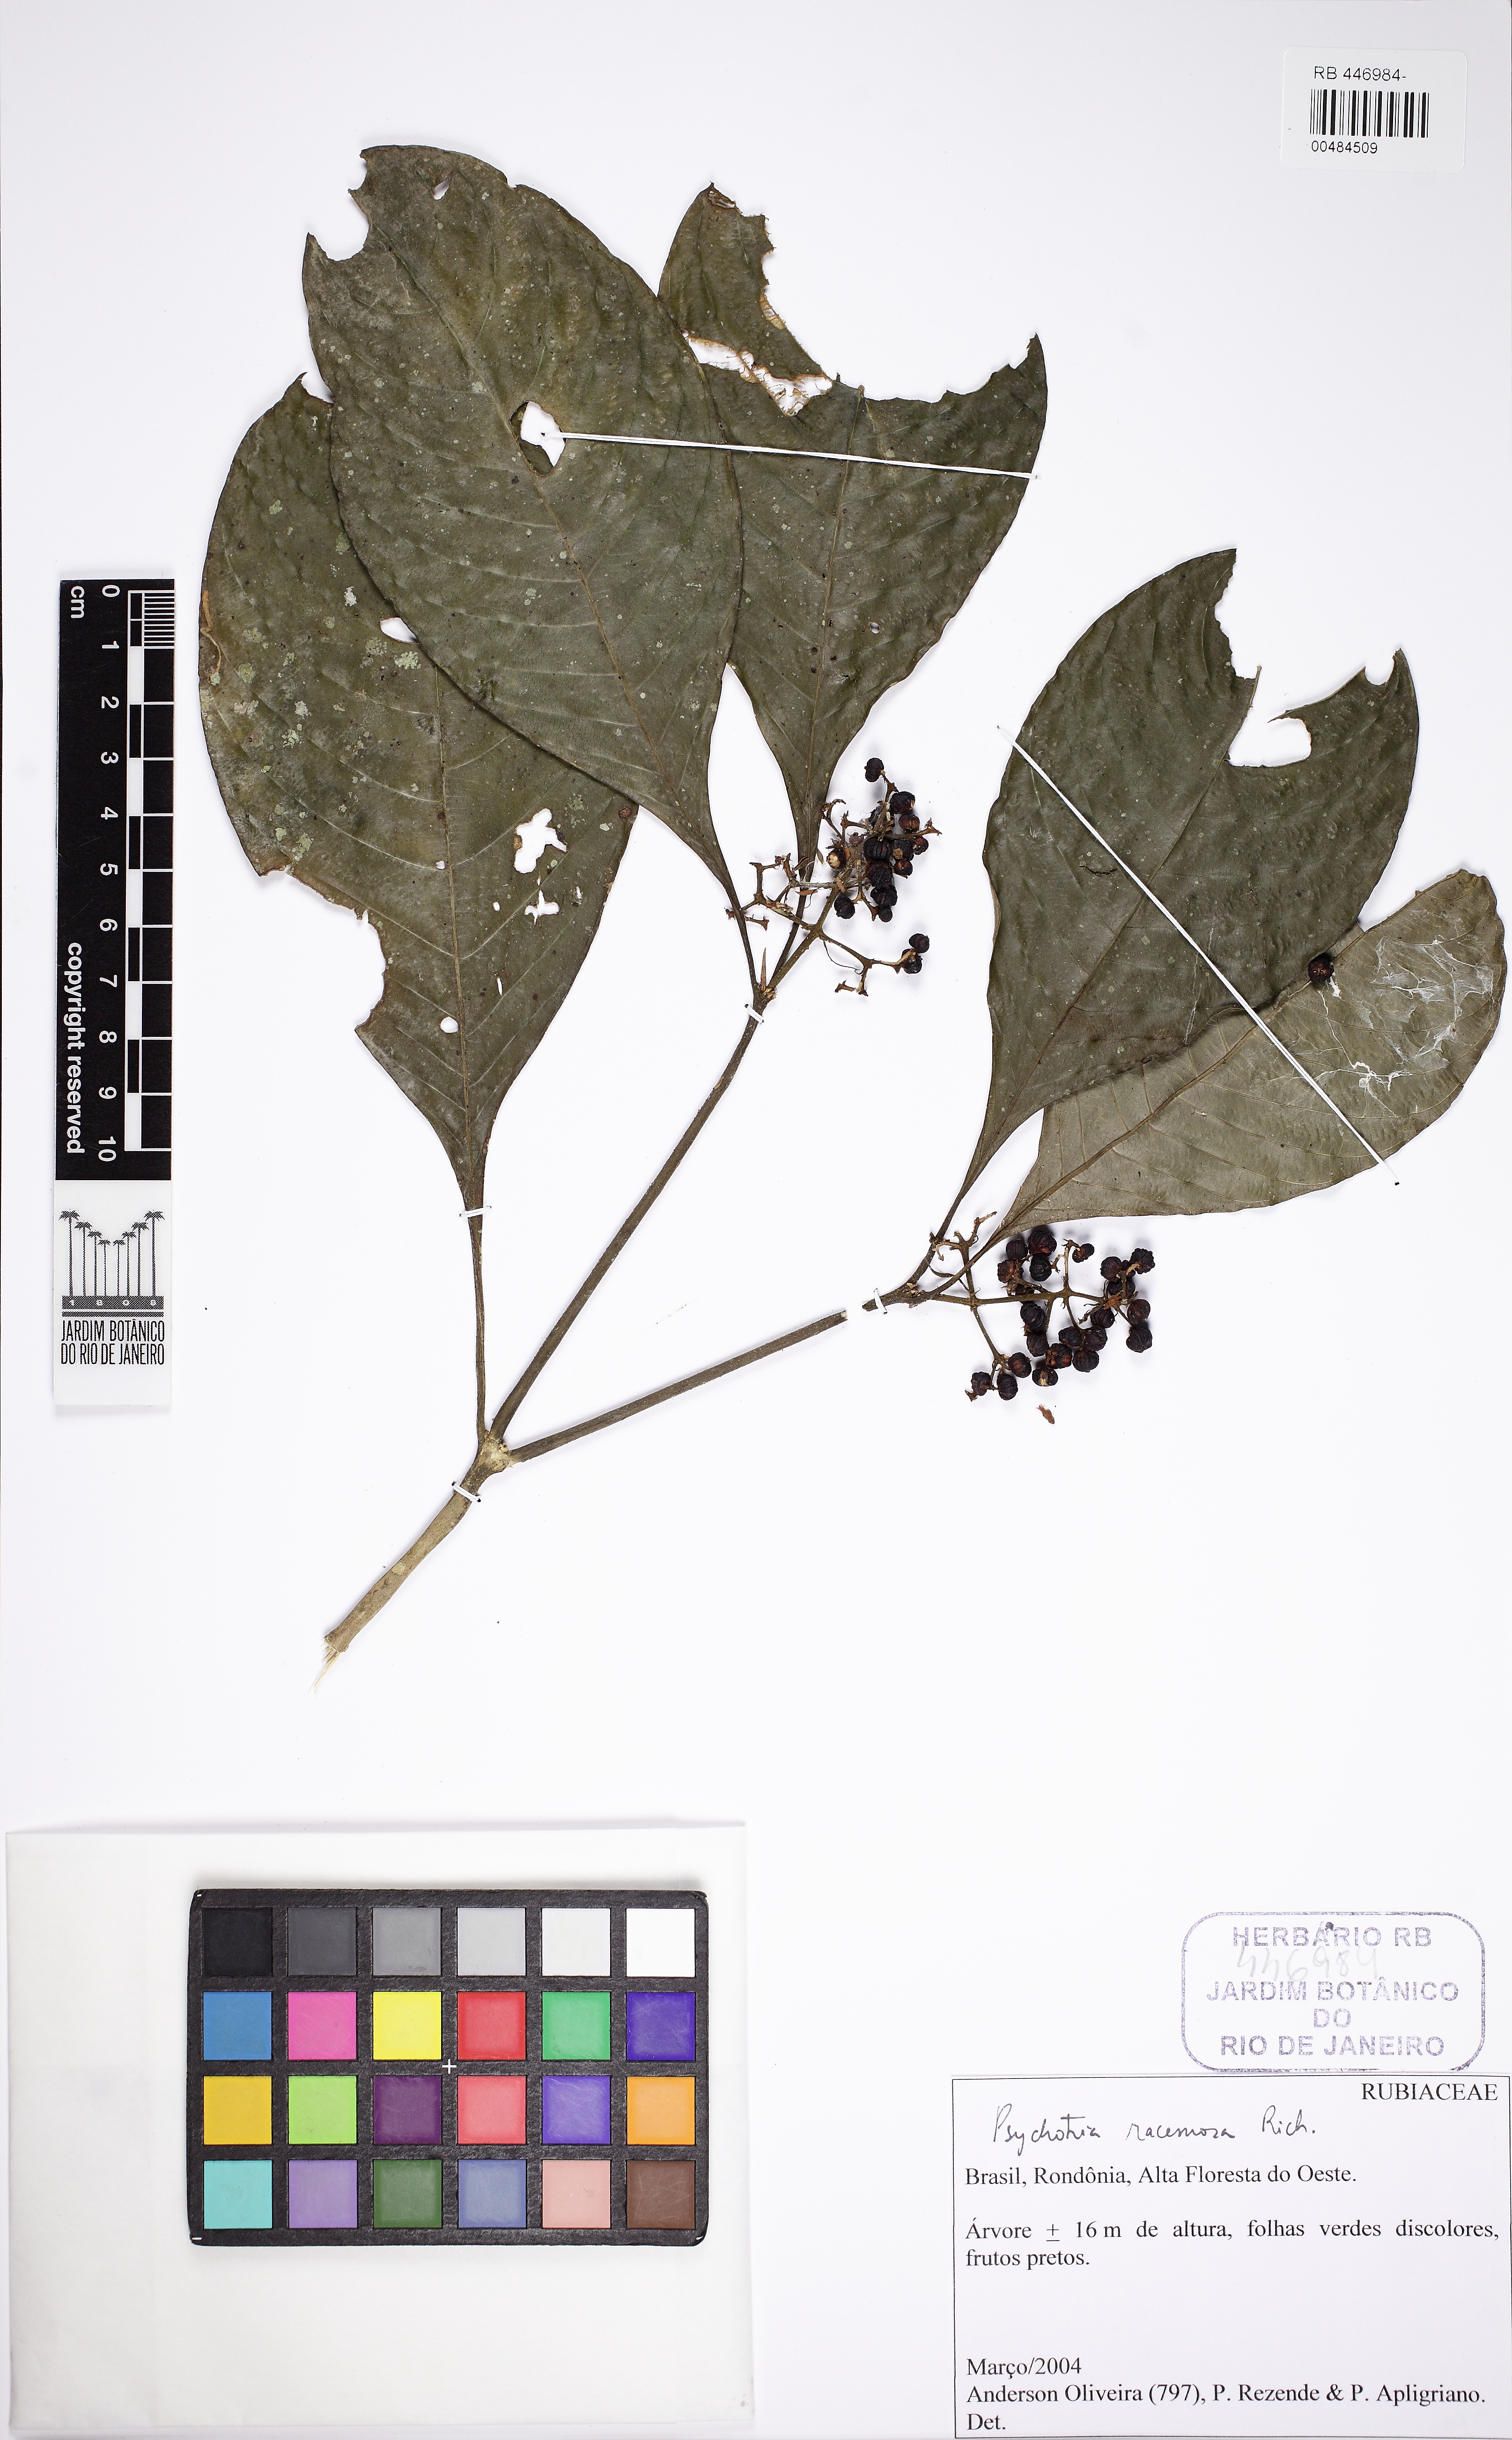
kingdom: Plantae
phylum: Tracheophyta
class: Magnoliopsida
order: Gentianales
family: Rubiaceae
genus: Palicourea
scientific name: Palicourea racemosa
